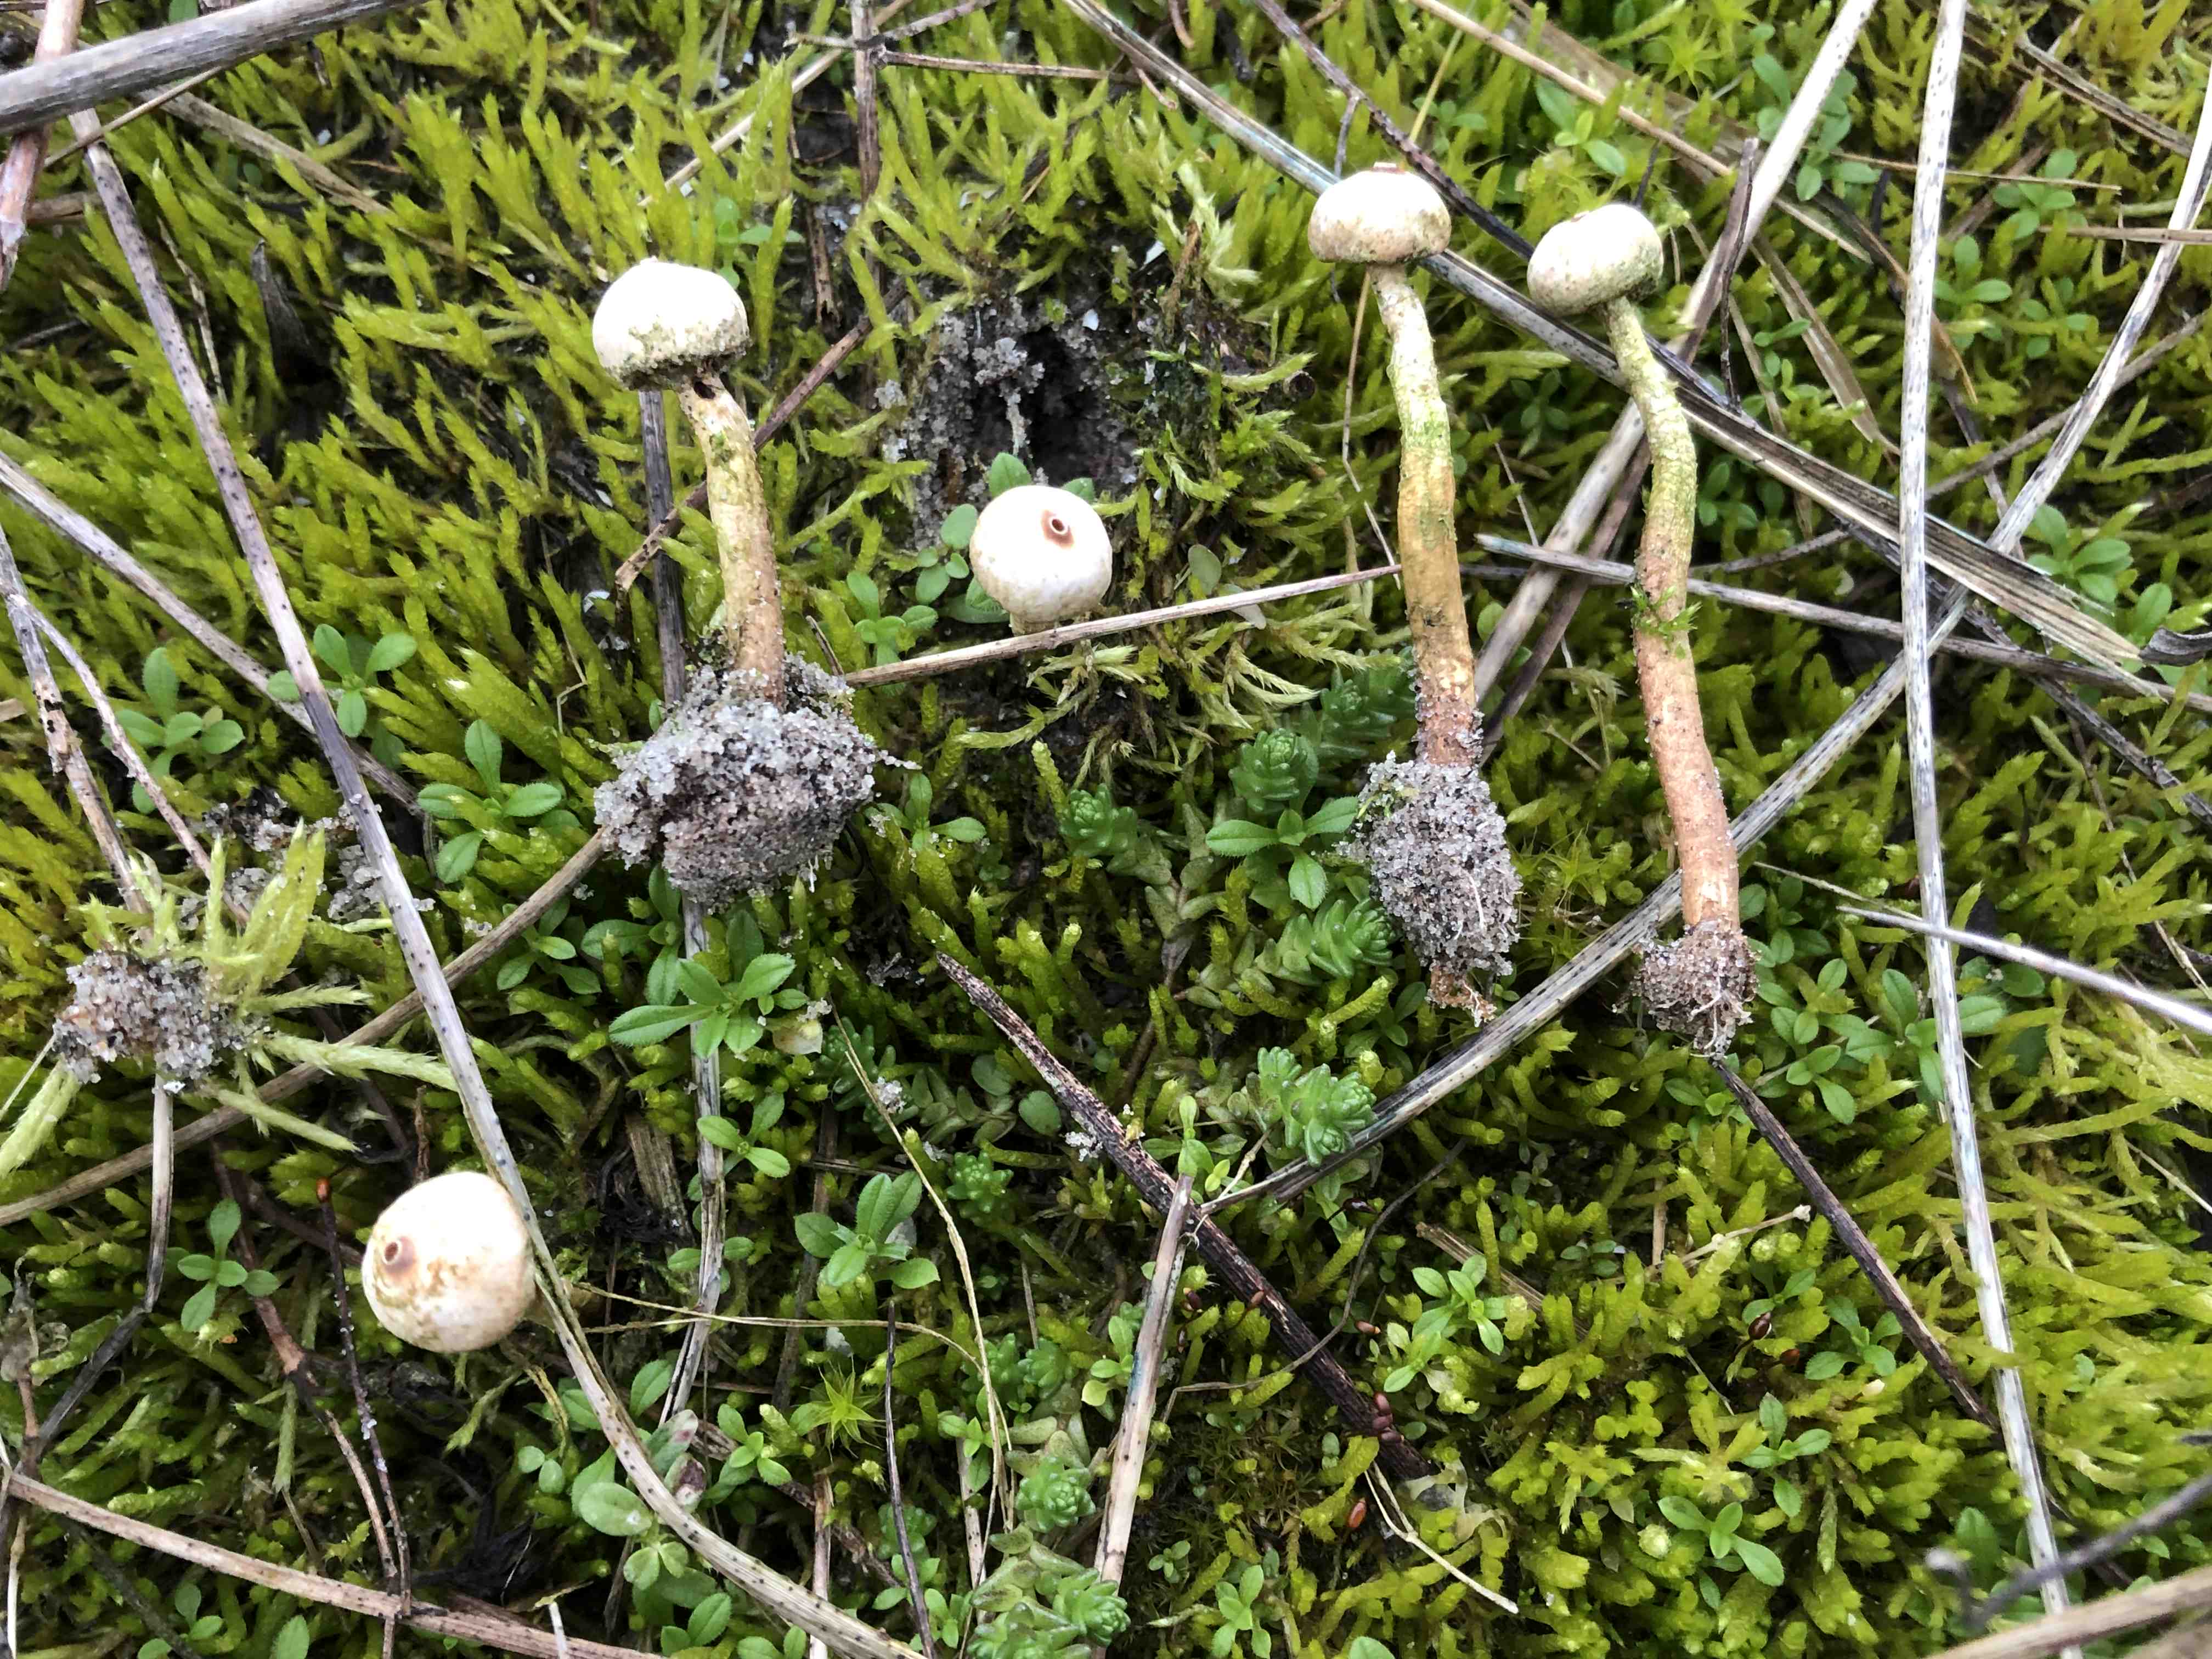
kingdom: Fungi
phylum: Basidiomycota
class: Agaricomycetes
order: Agaricales
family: Agaricaceae
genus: Tulostoma
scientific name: Tulostoma brumale
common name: vinter-stilkbovist
